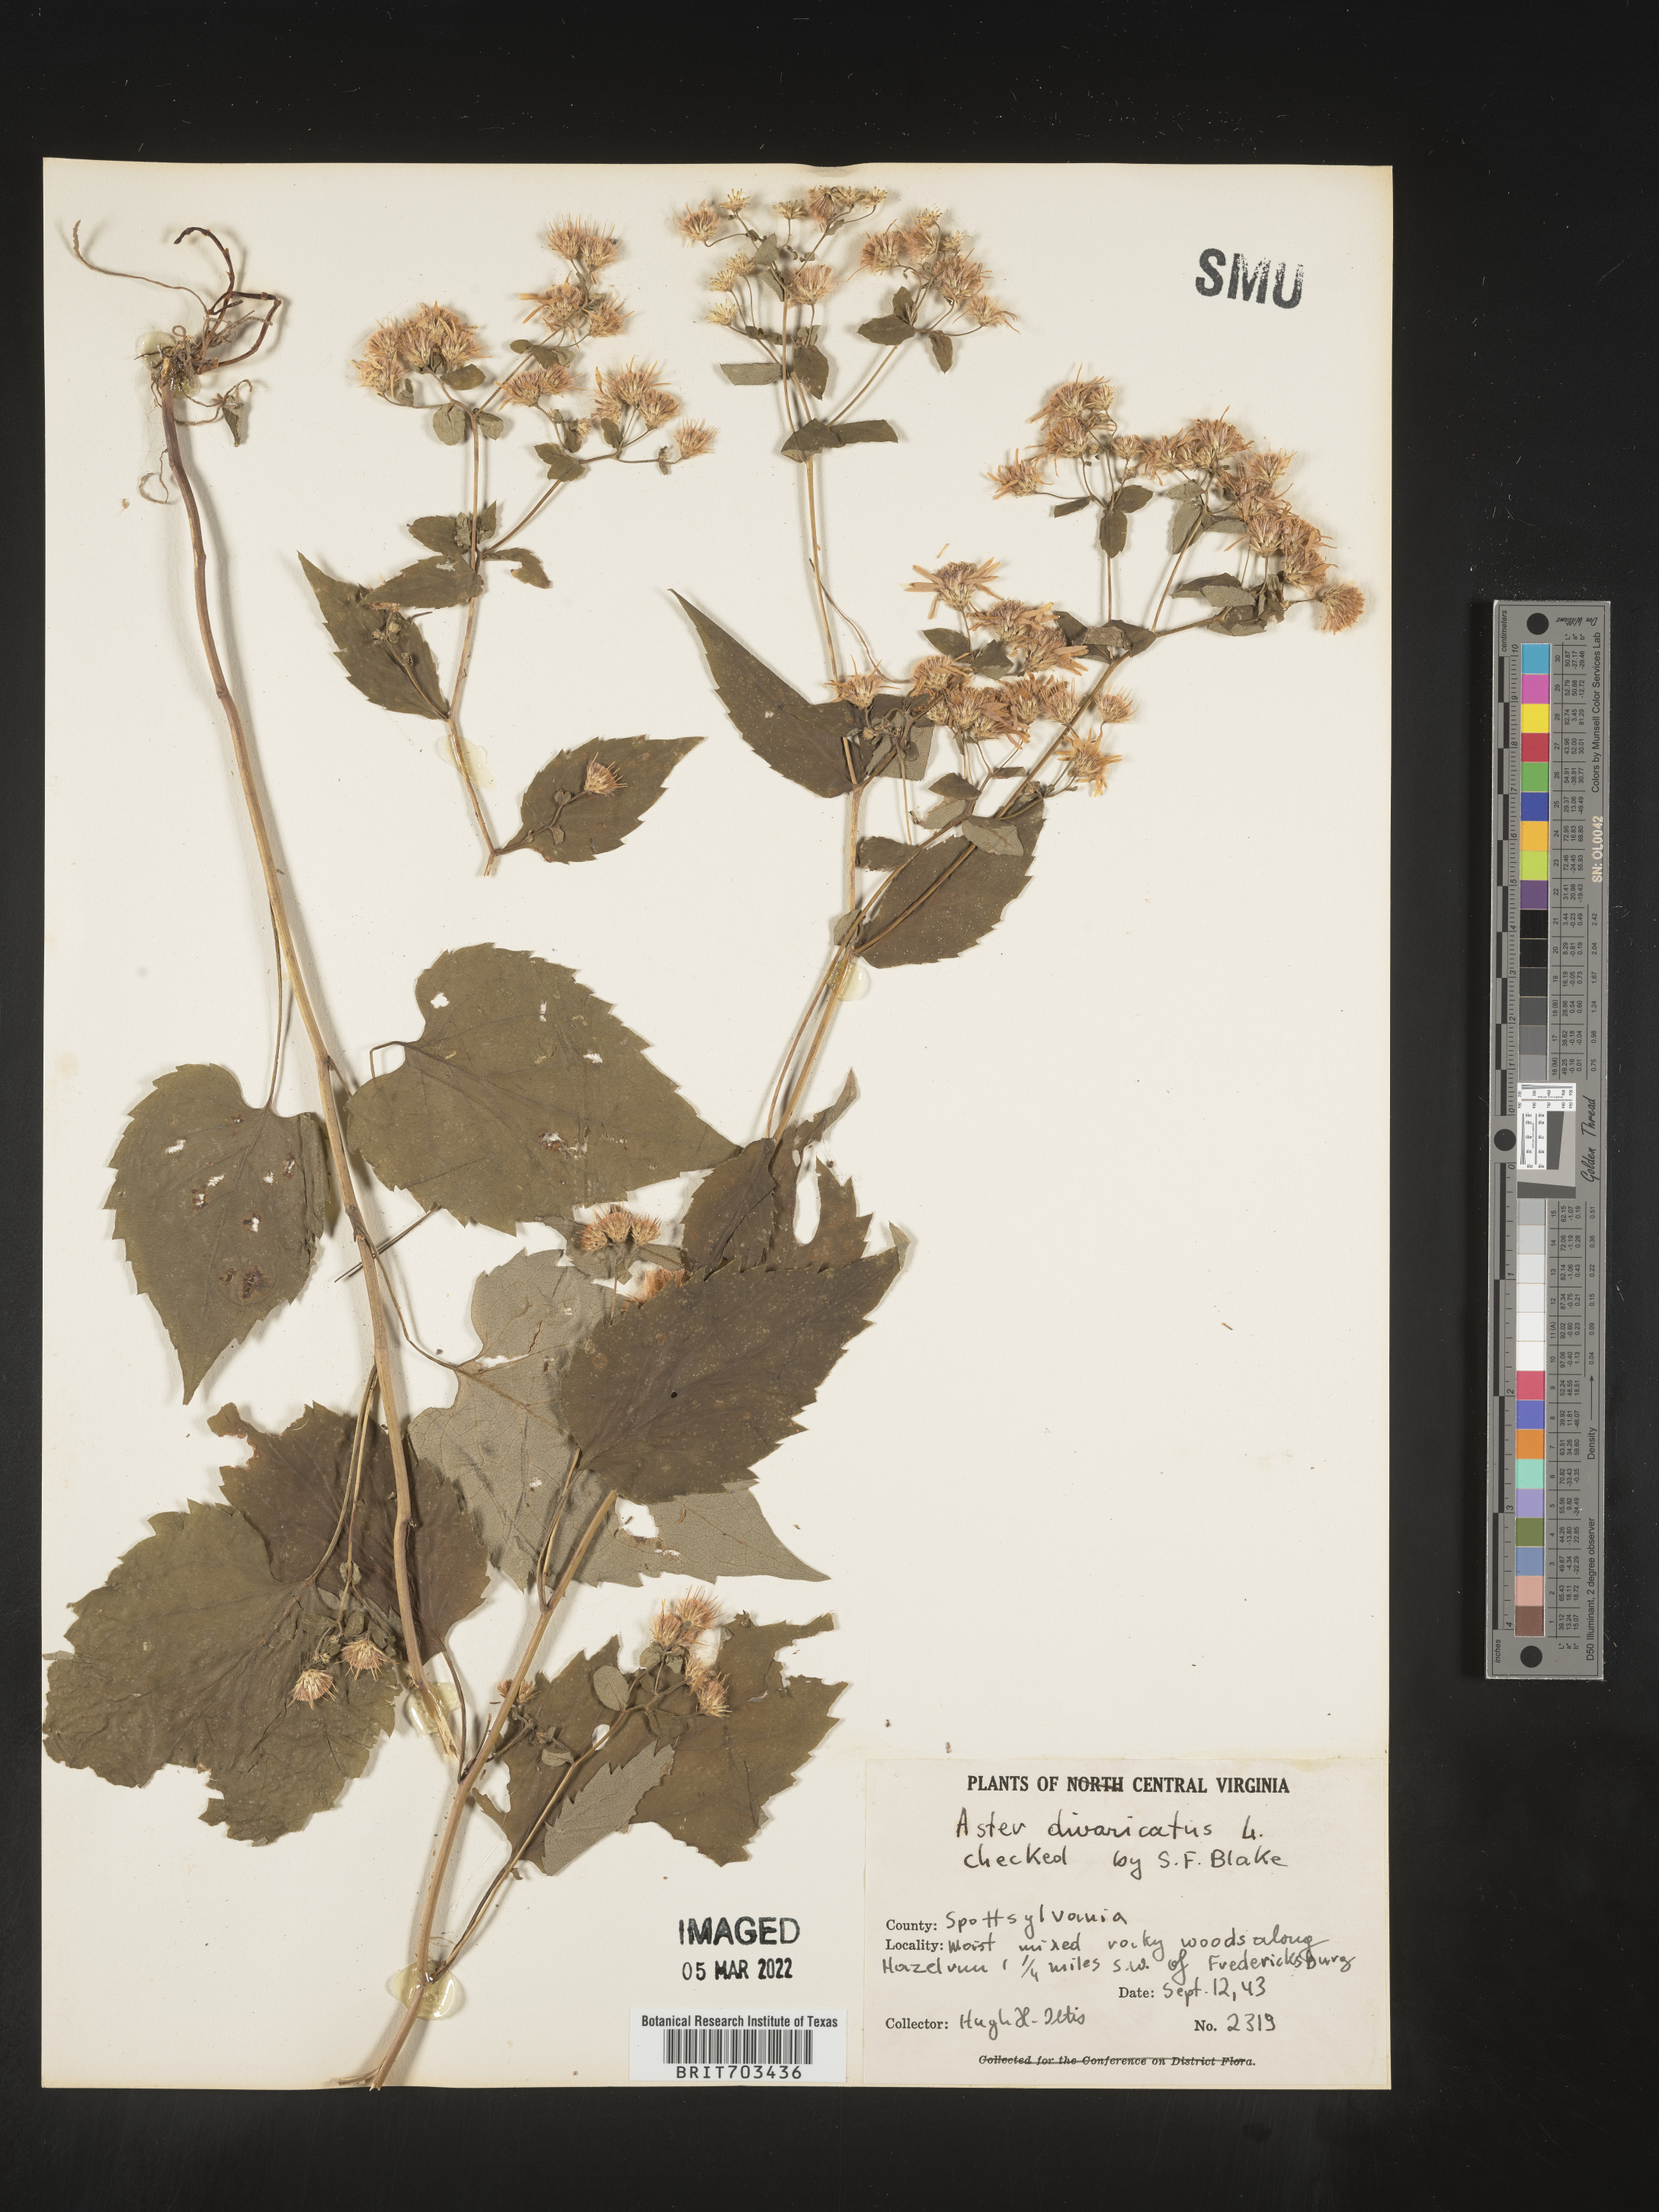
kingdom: Plantae
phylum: Tracheophyta
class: Magnoliopsida
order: Asterales
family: Asteraceae
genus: Eurybia
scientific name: Eurybia divaricata
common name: White wood aster
